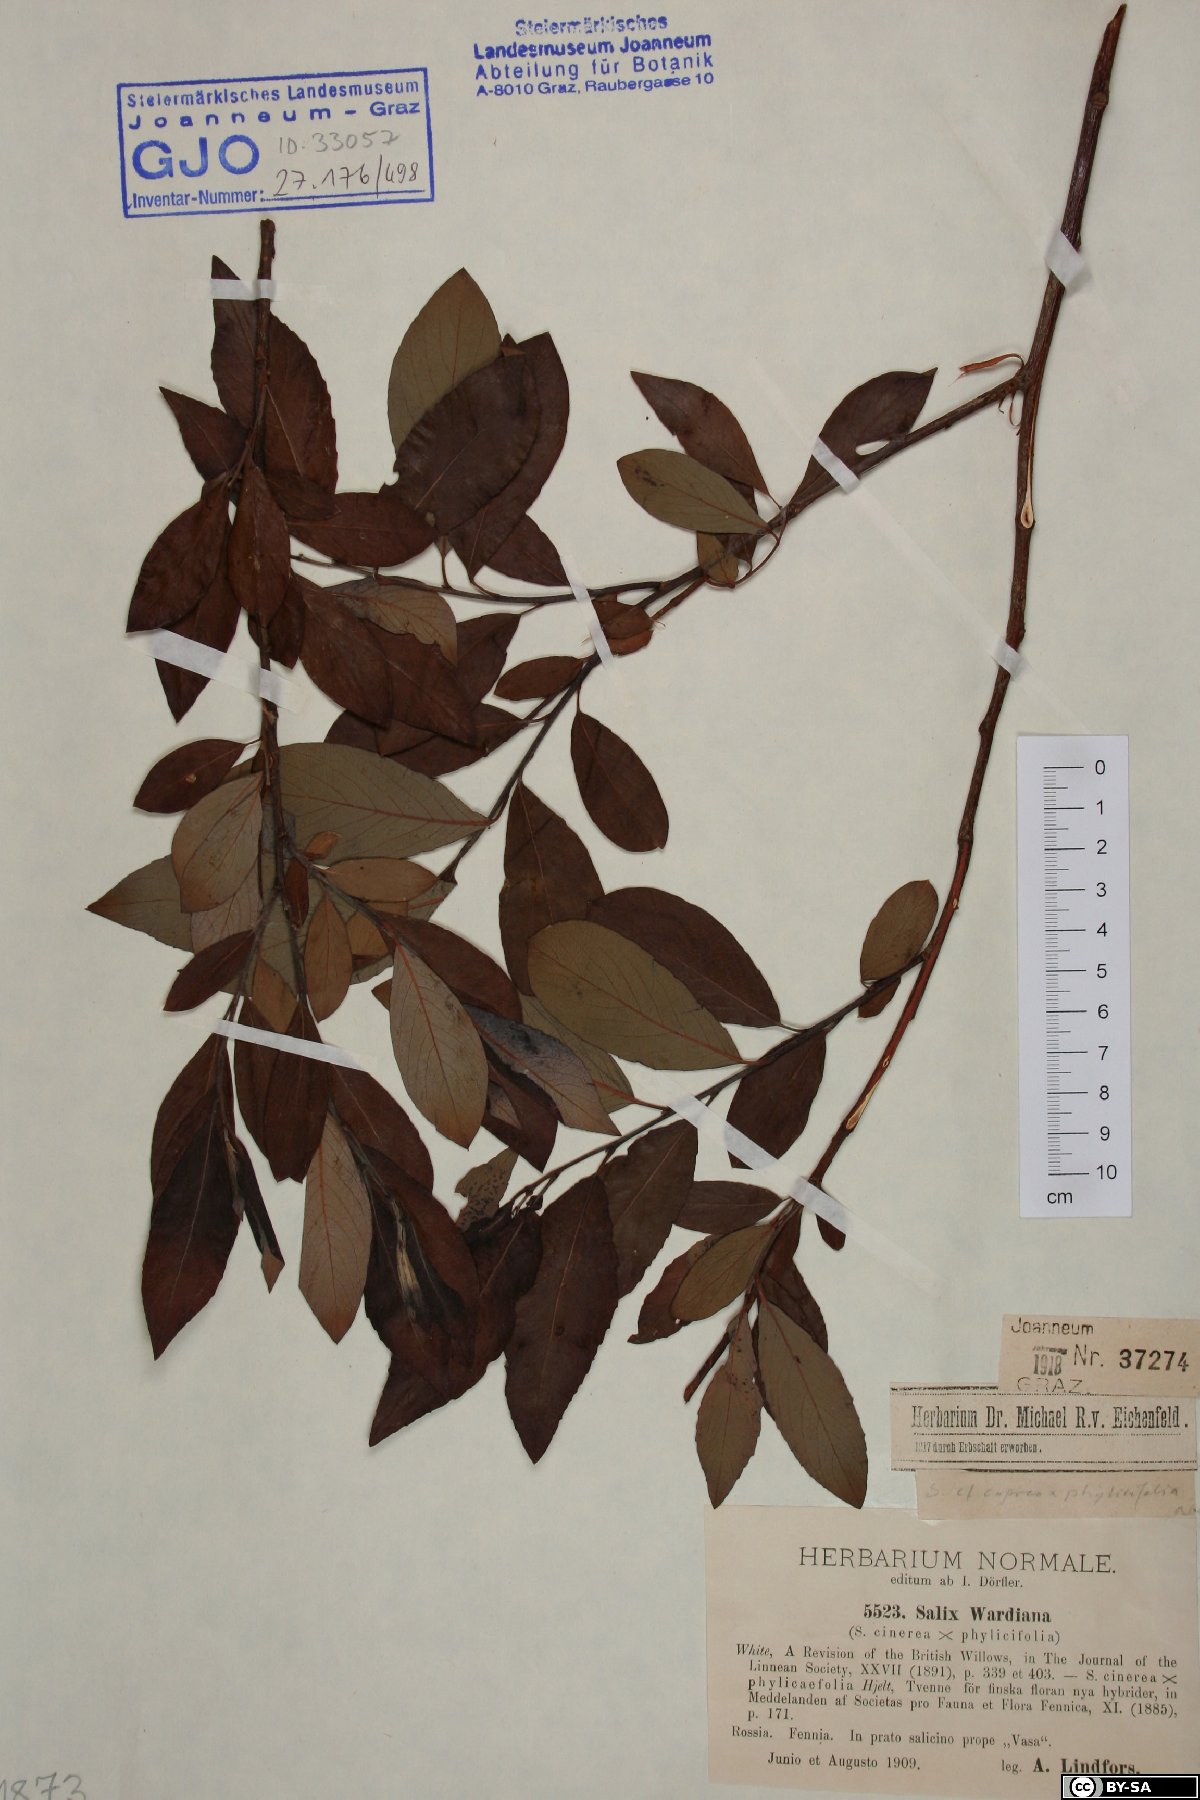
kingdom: Plantae
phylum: Tracheophyta
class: Magnoliopsida
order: Malpighiales
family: Salicaceae
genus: Salix
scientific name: Salix wardiana
